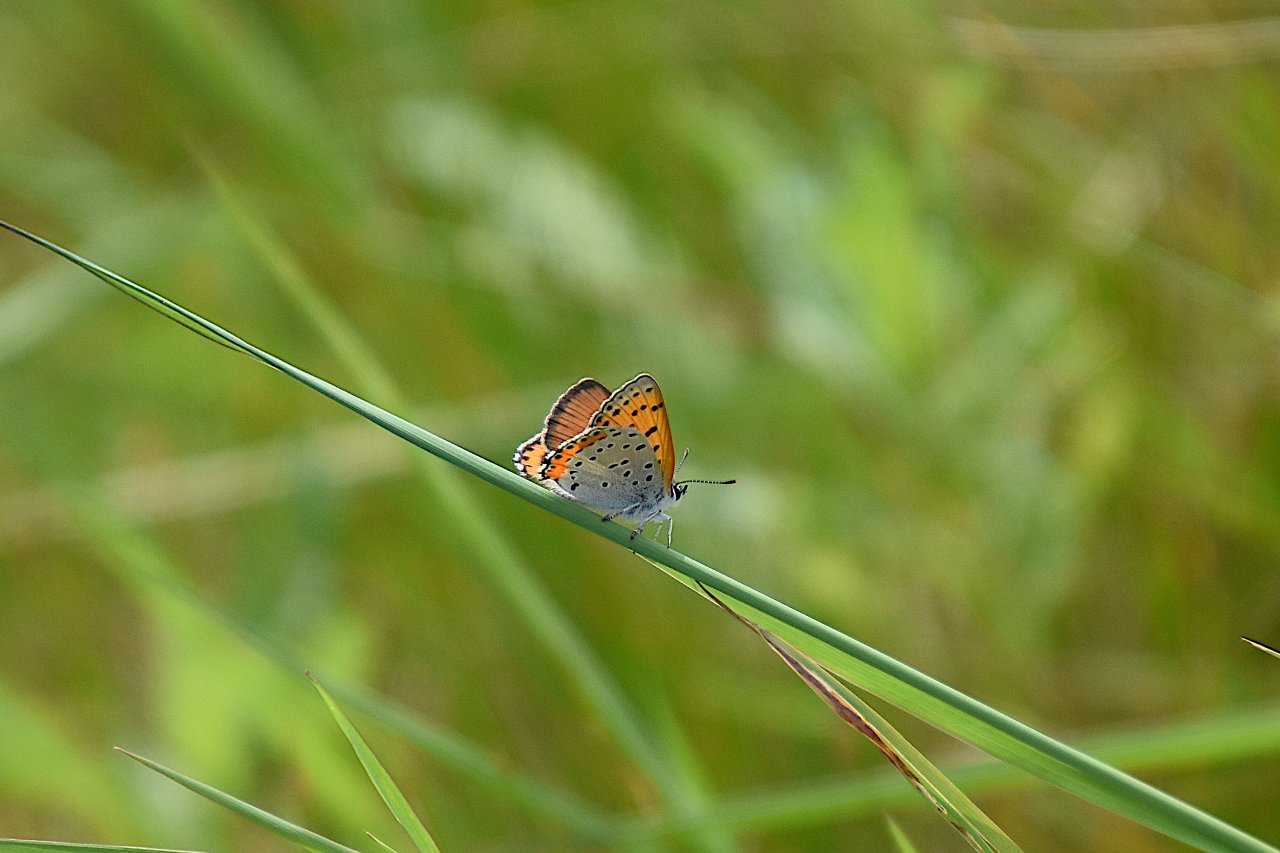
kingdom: Animalia
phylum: Arthropoda
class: Insecta
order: Lepidoptera
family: Sesiidae
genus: Sesia
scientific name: Sesia Lycaena hyllus
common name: Bronze Copper
